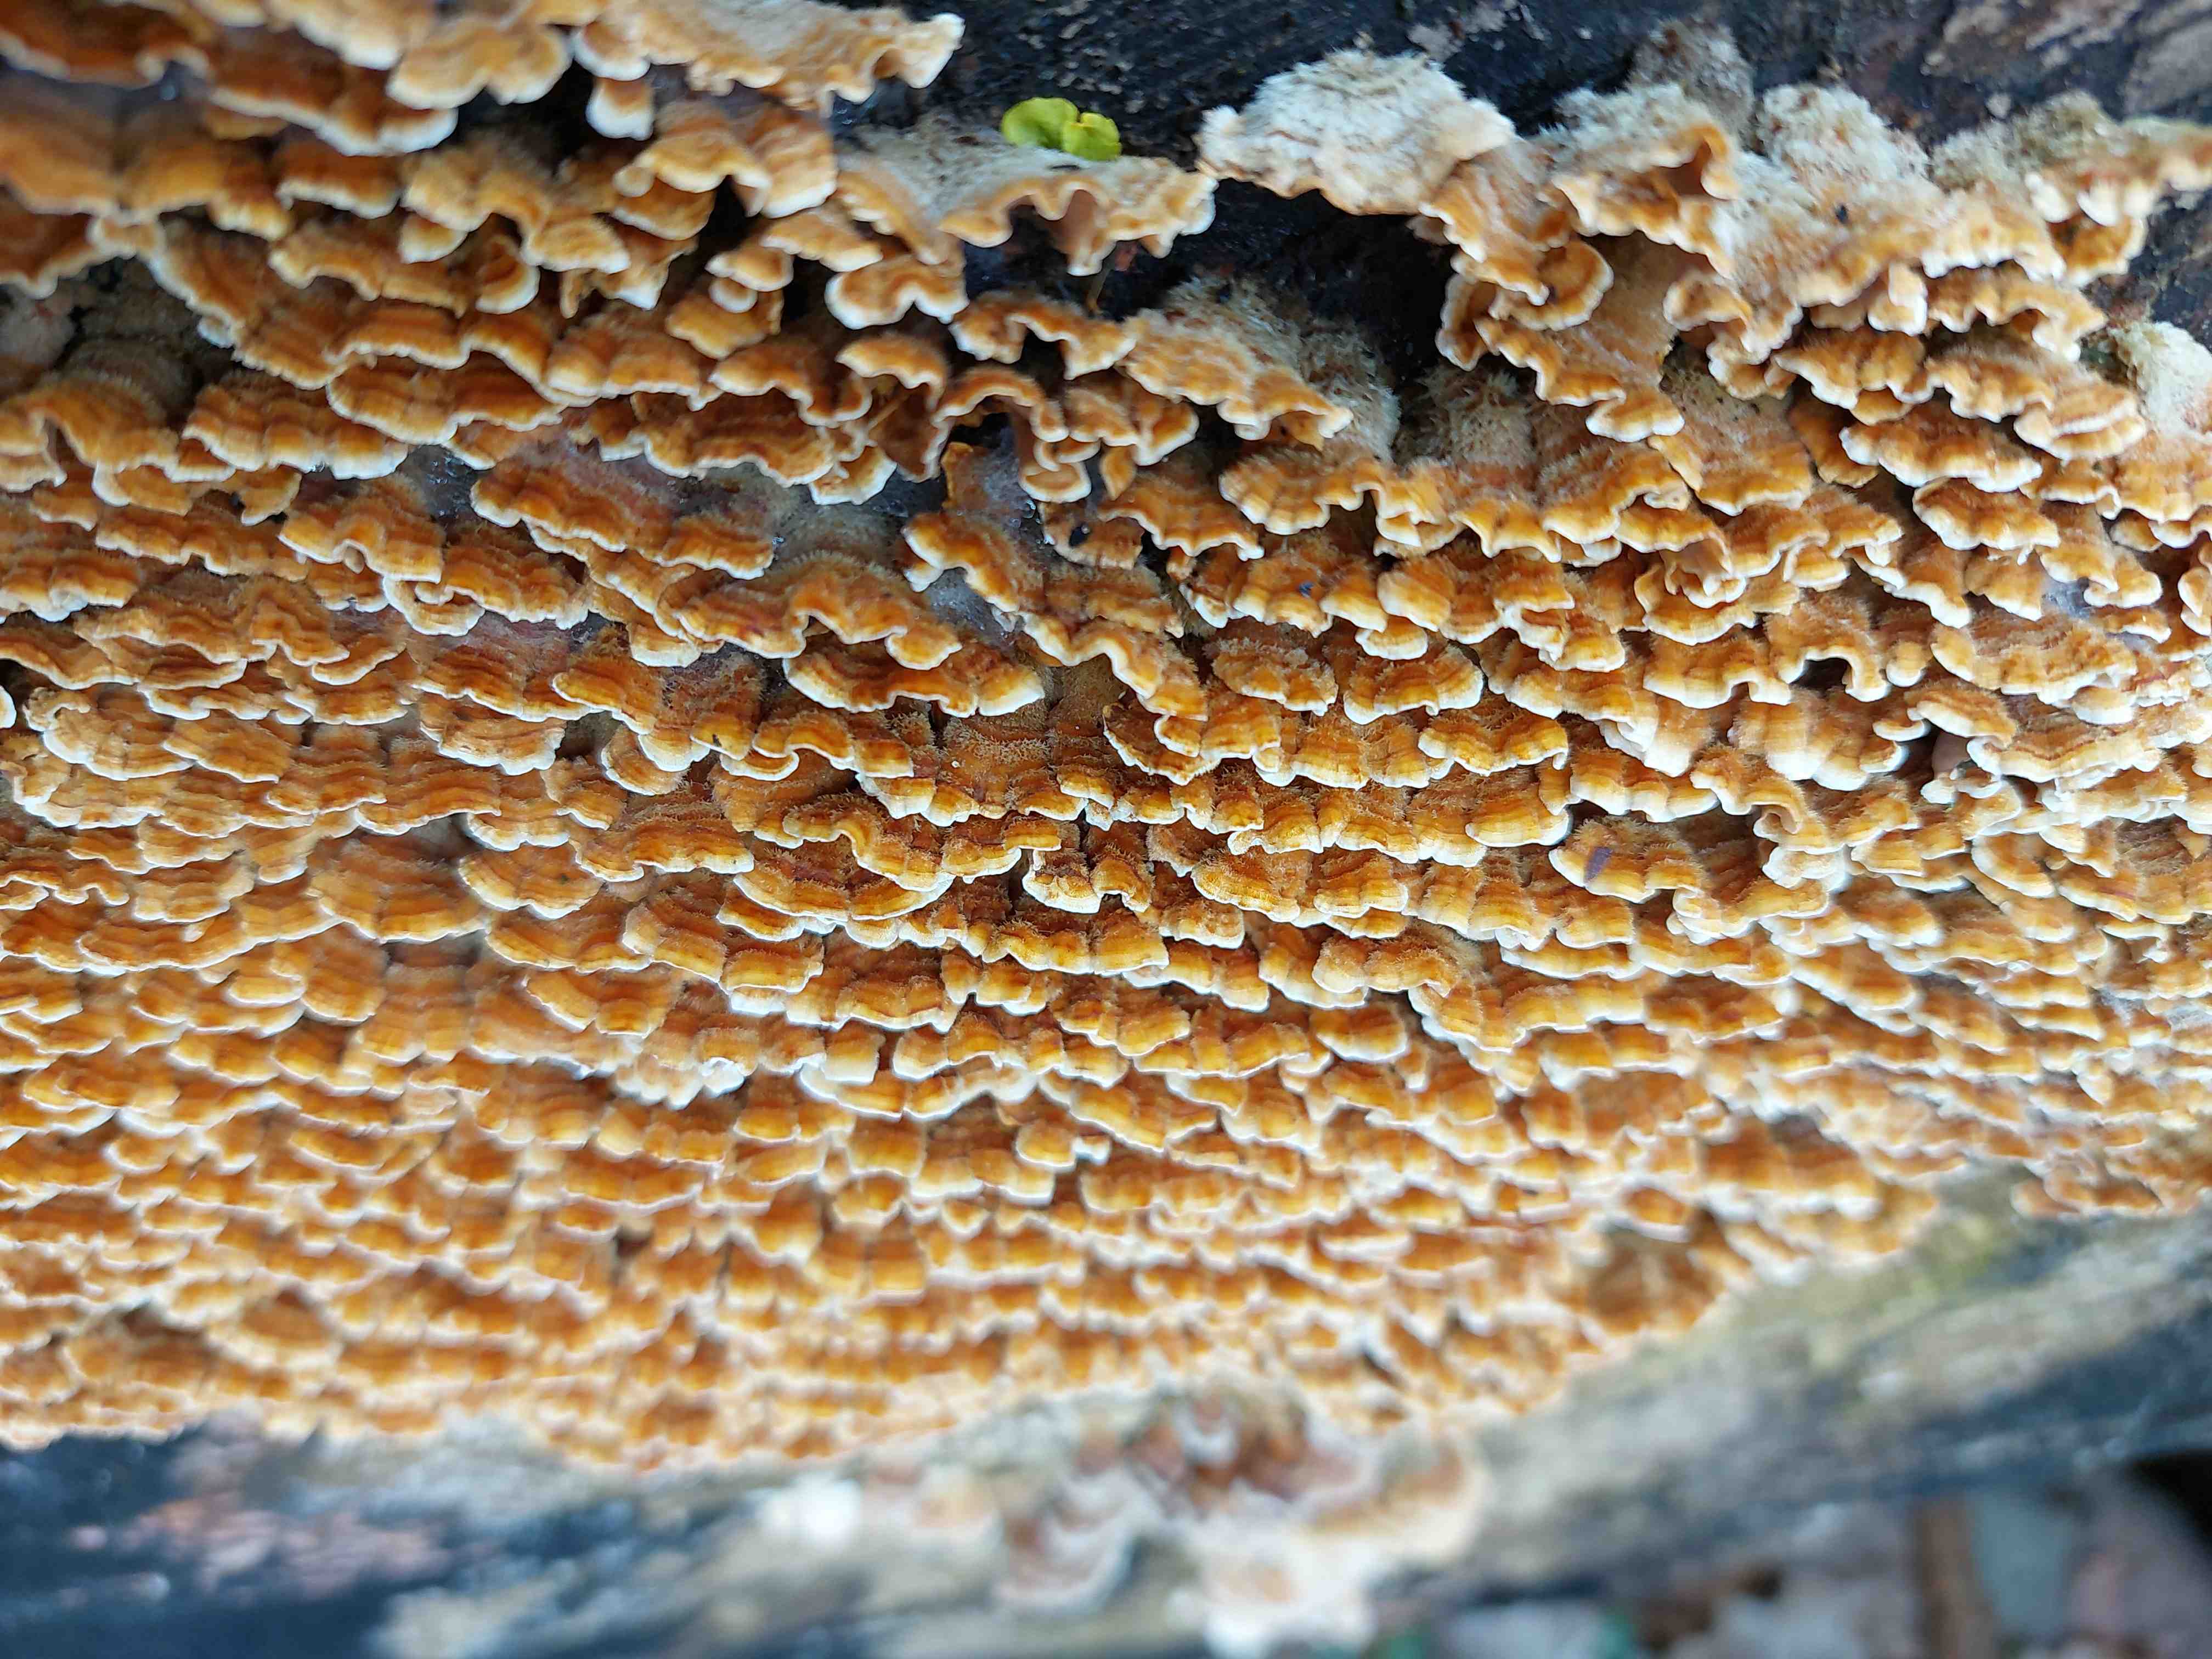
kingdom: Fungi
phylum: Basidiomycota
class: Agaricomycetes
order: Russulales
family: Stereaceae
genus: Stereum
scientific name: Stereum hirsutum
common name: håret lædersvamp
